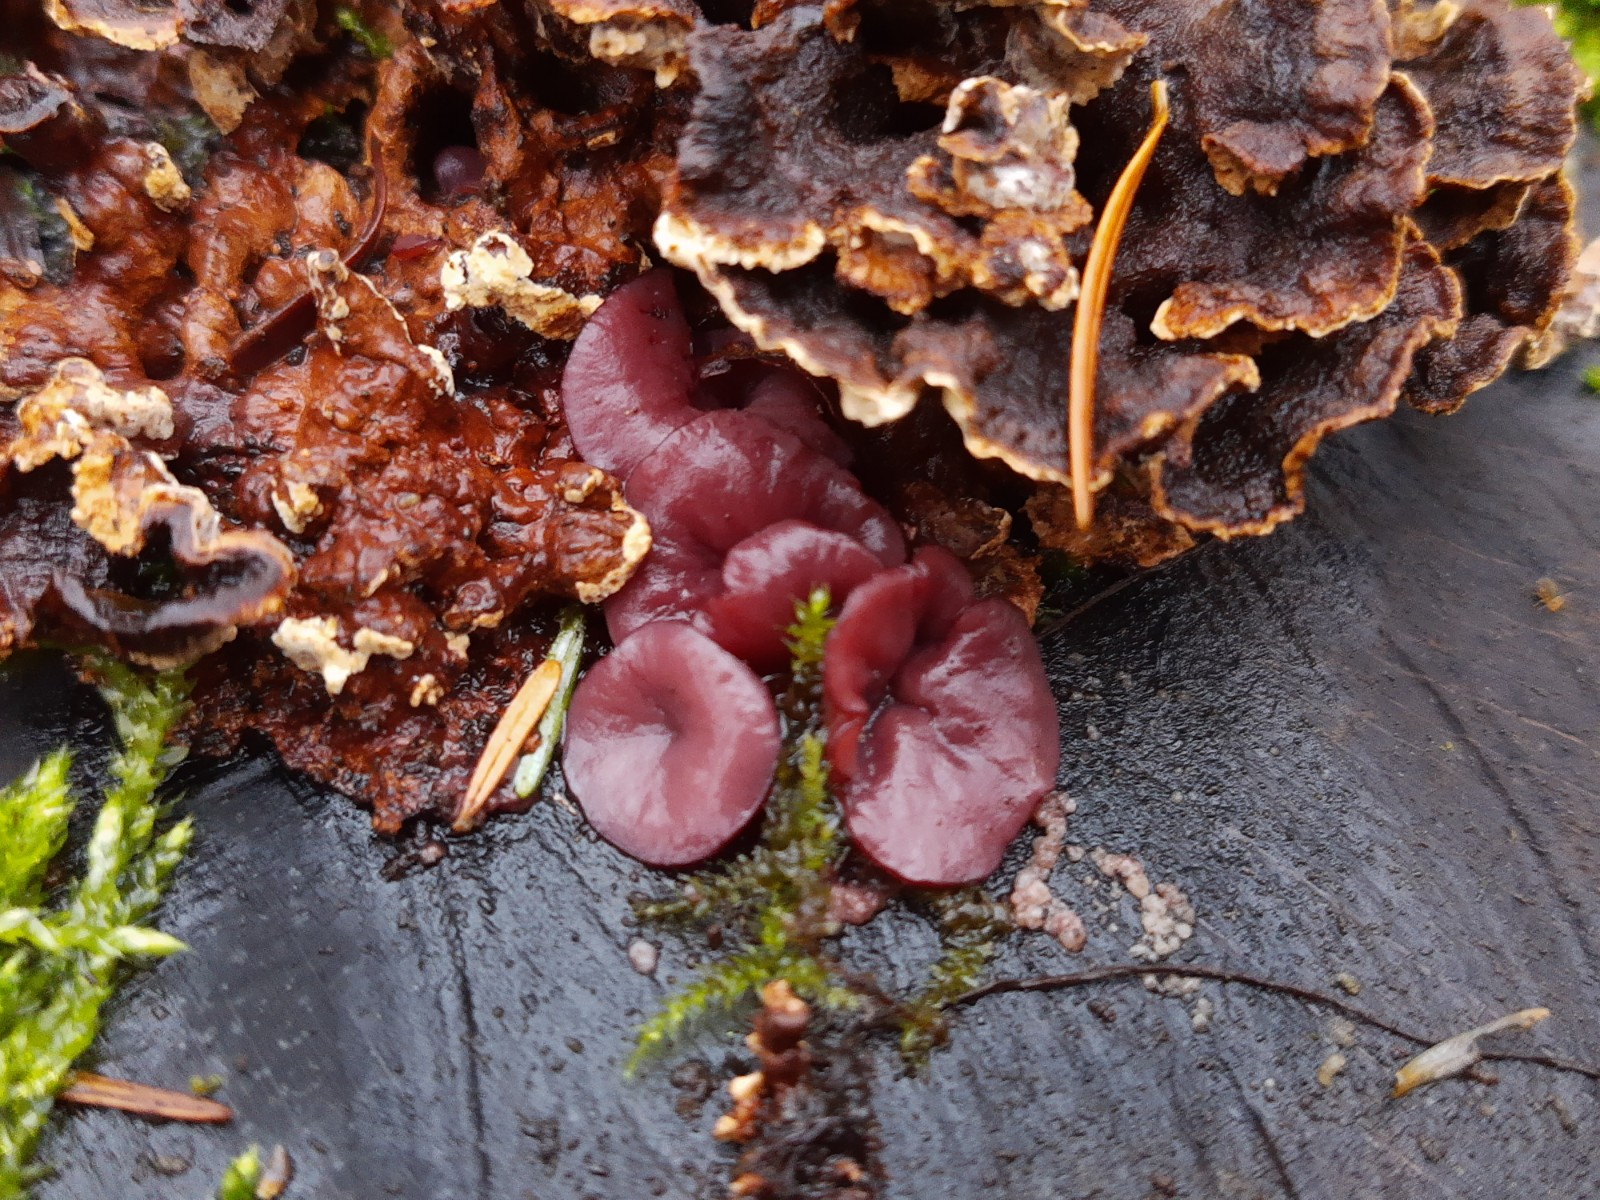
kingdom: Fungi
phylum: Ascomycota
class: Leotiomycetes
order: Helotiales
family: Gelatinodiscaceae
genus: Ascocoryne
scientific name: Ascocoryne cylichnium
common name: stor sejskive
